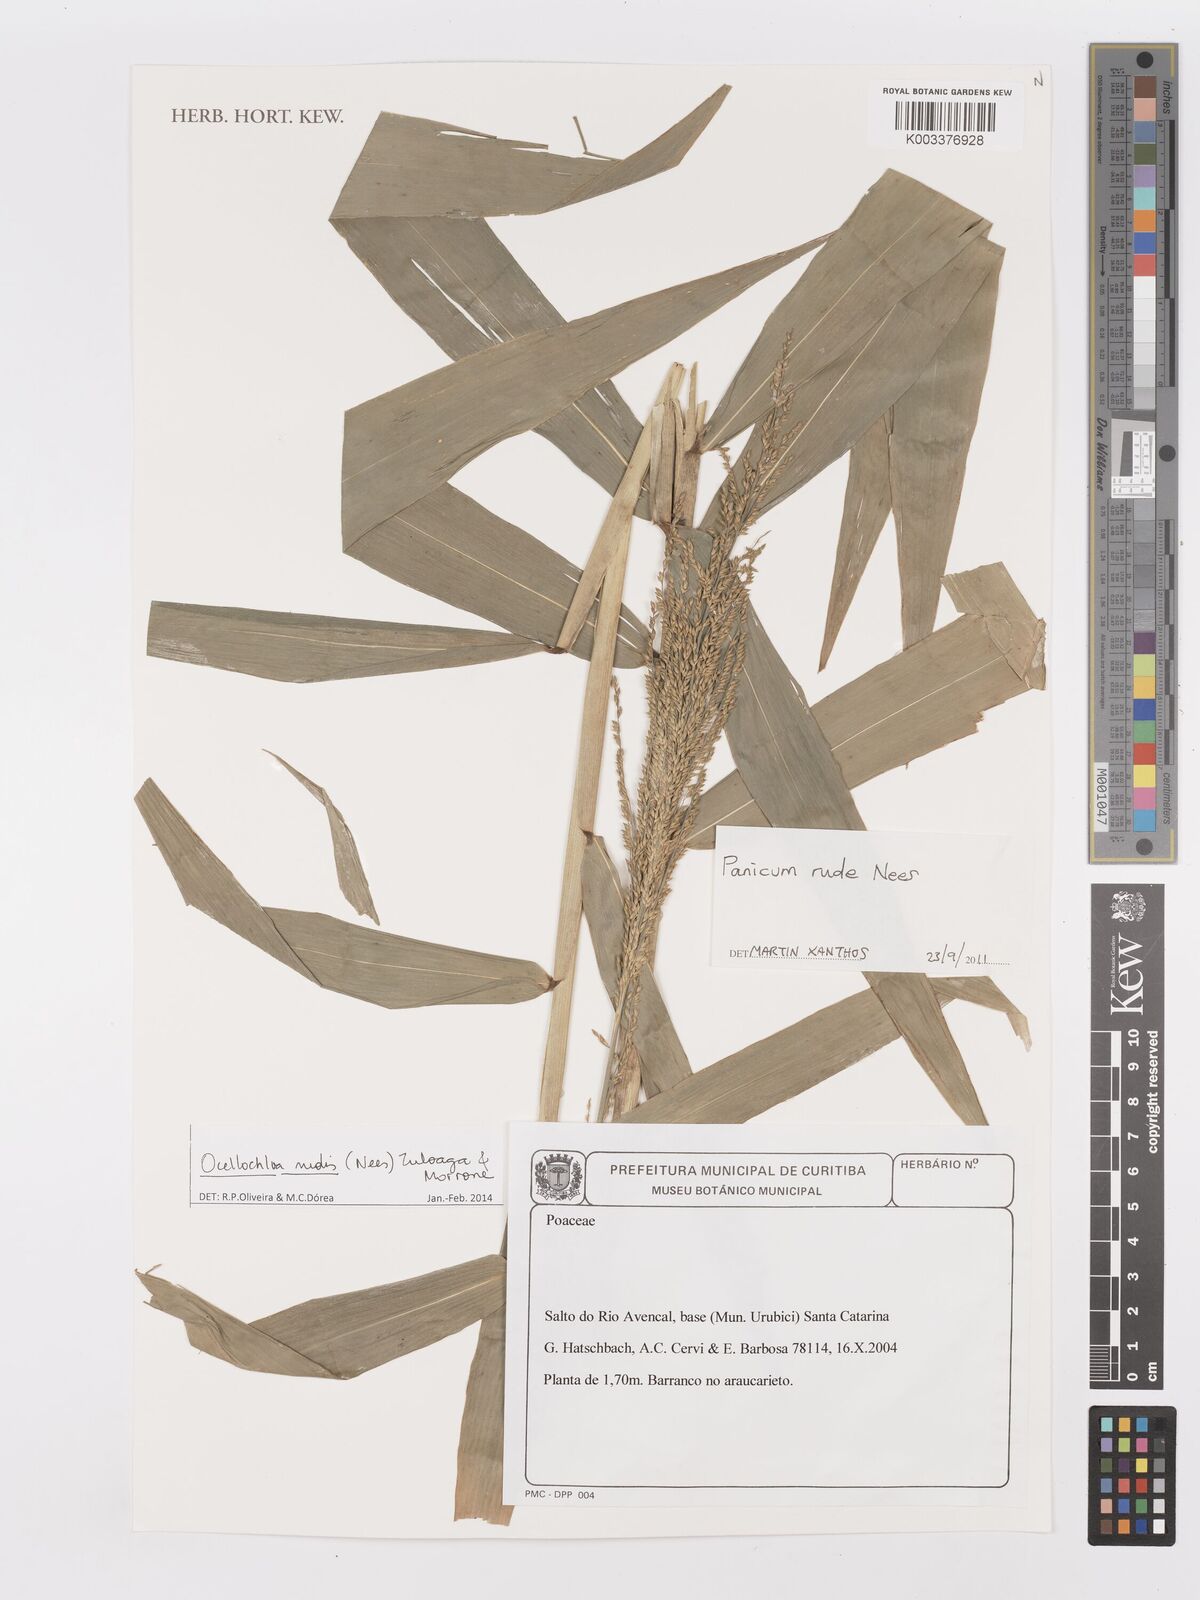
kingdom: Plantae
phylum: Tracheophyta
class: Liliopsida
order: Poales
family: Poaceae
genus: Ocellochloa
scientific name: Ocellochloa rudis
